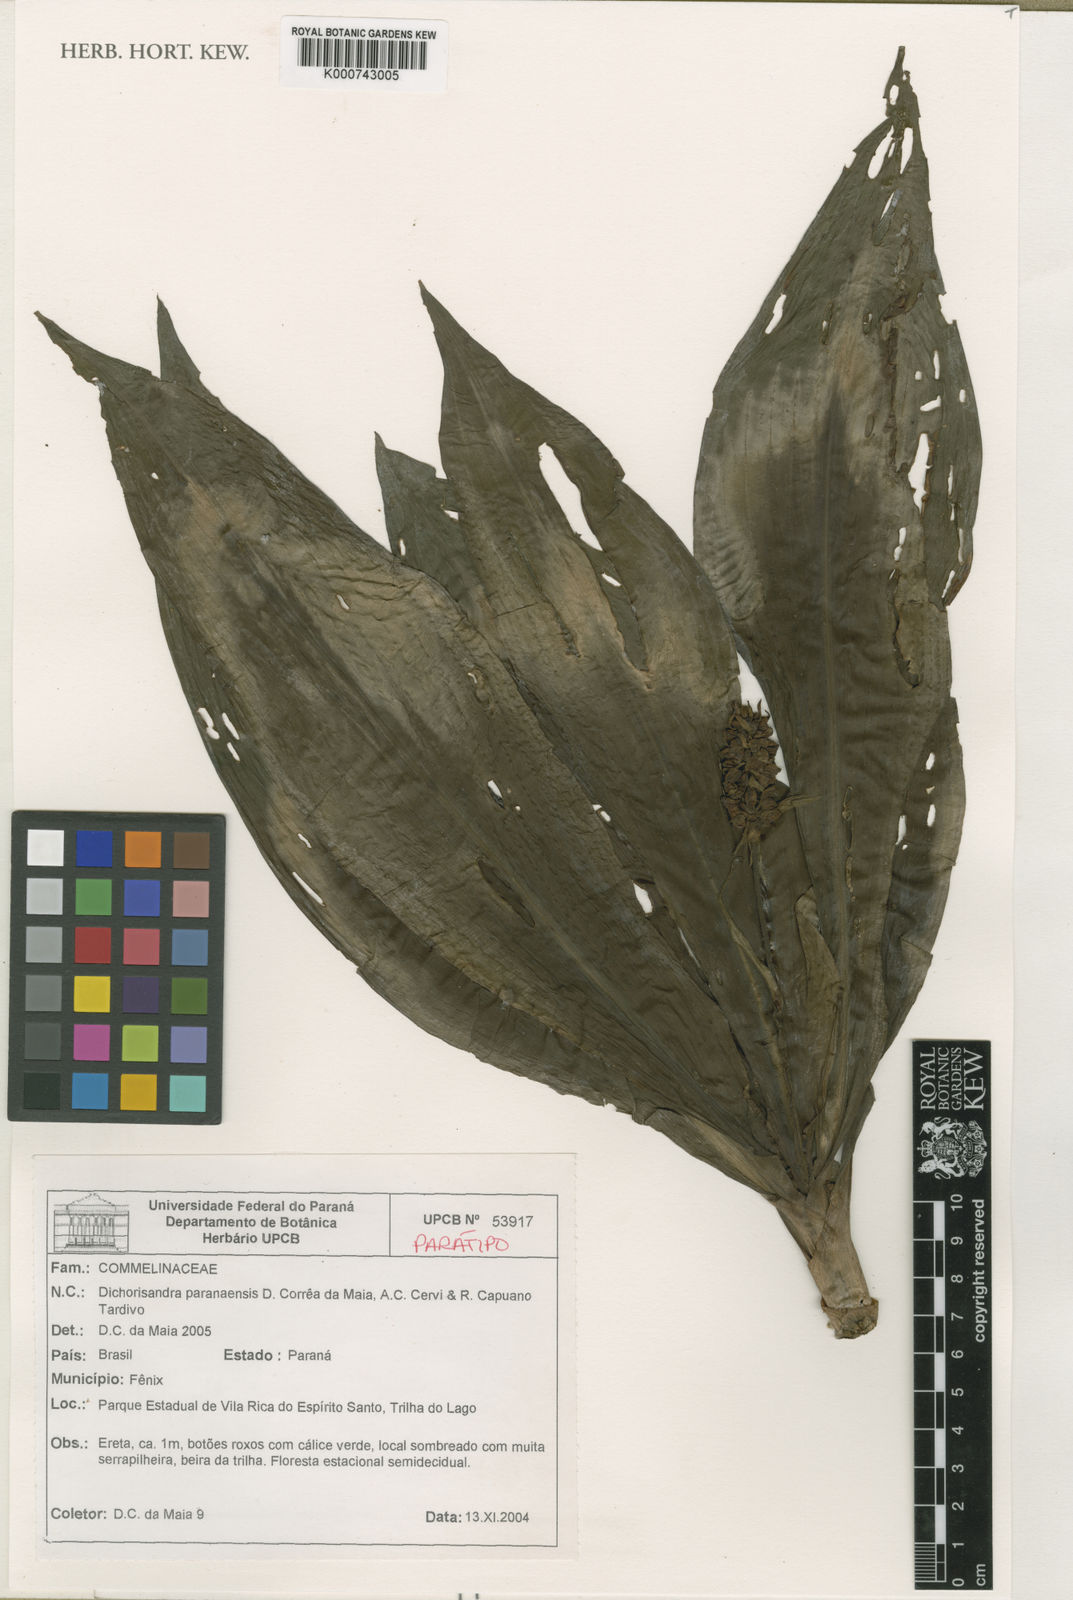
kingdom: Plantae
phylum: Tracheophyta
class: Liliopsida
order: Commelinales
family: Commelinaceae
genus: Dichorisandra
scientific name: Dichorisandra paranaensis
